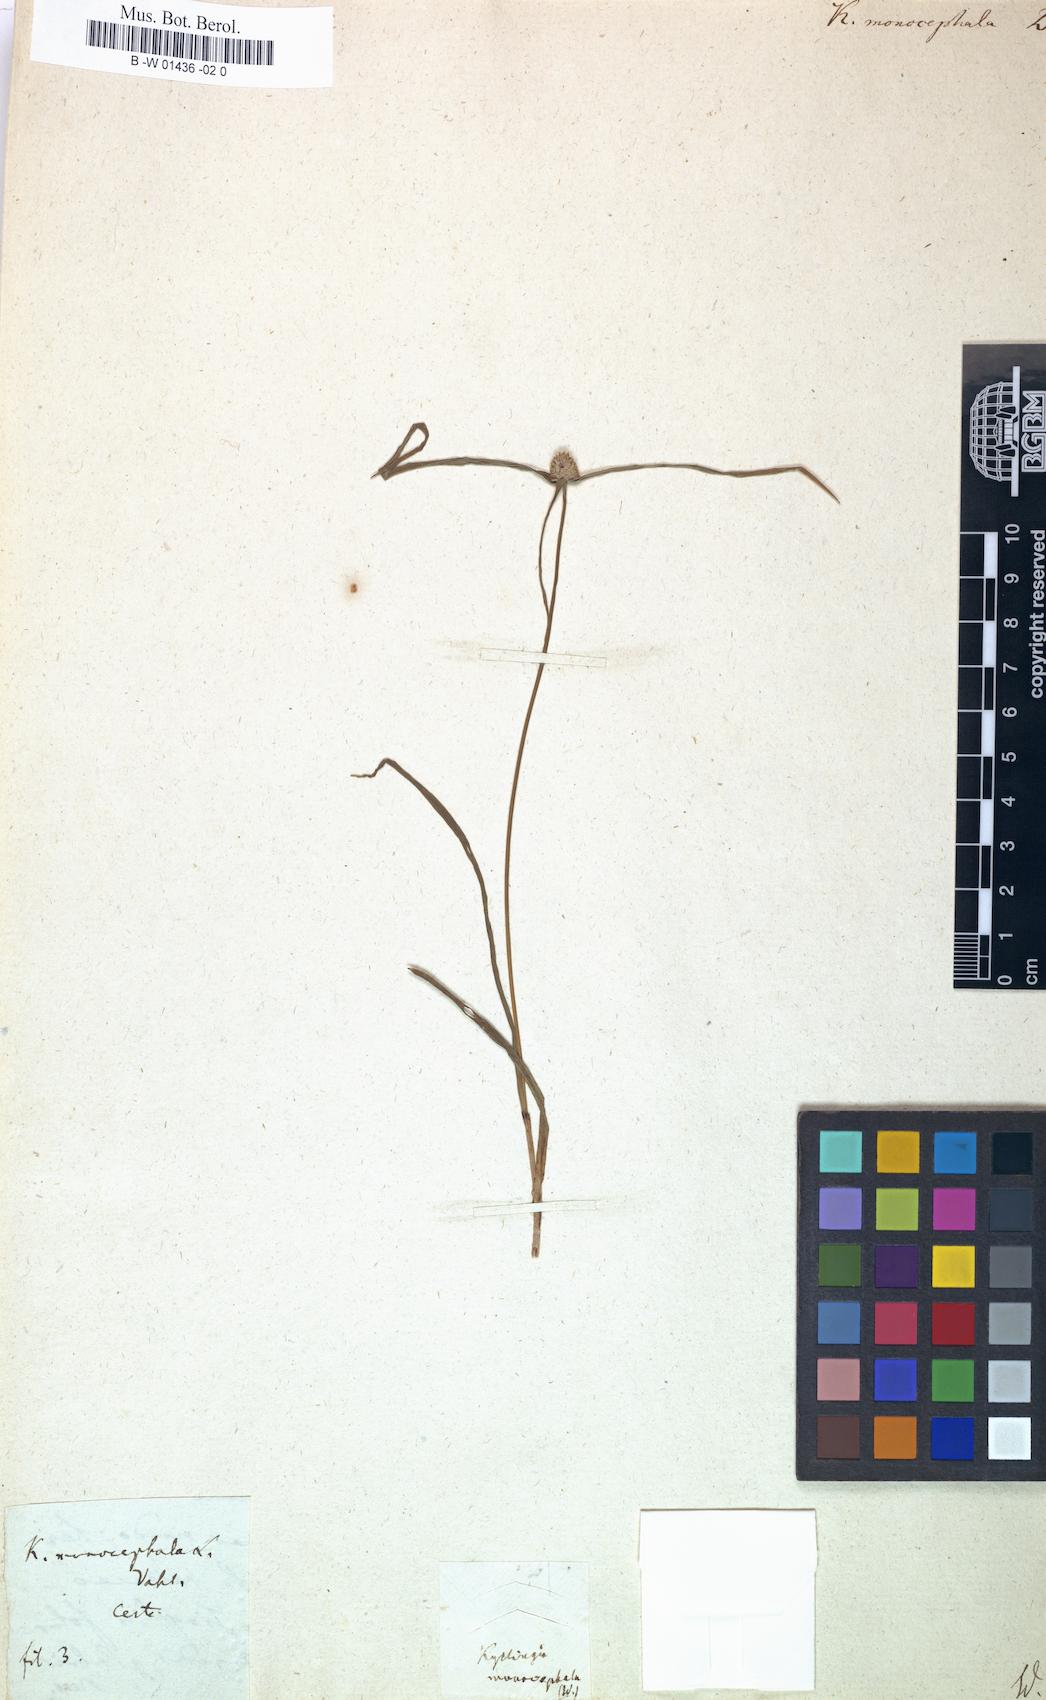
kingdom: Plantae
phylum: Tracheophyta
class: Liliopsida
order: Poales
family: Cyperaceae
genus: Cyperus
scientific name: Cyperus brevifolius
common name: Globe kyllinga
